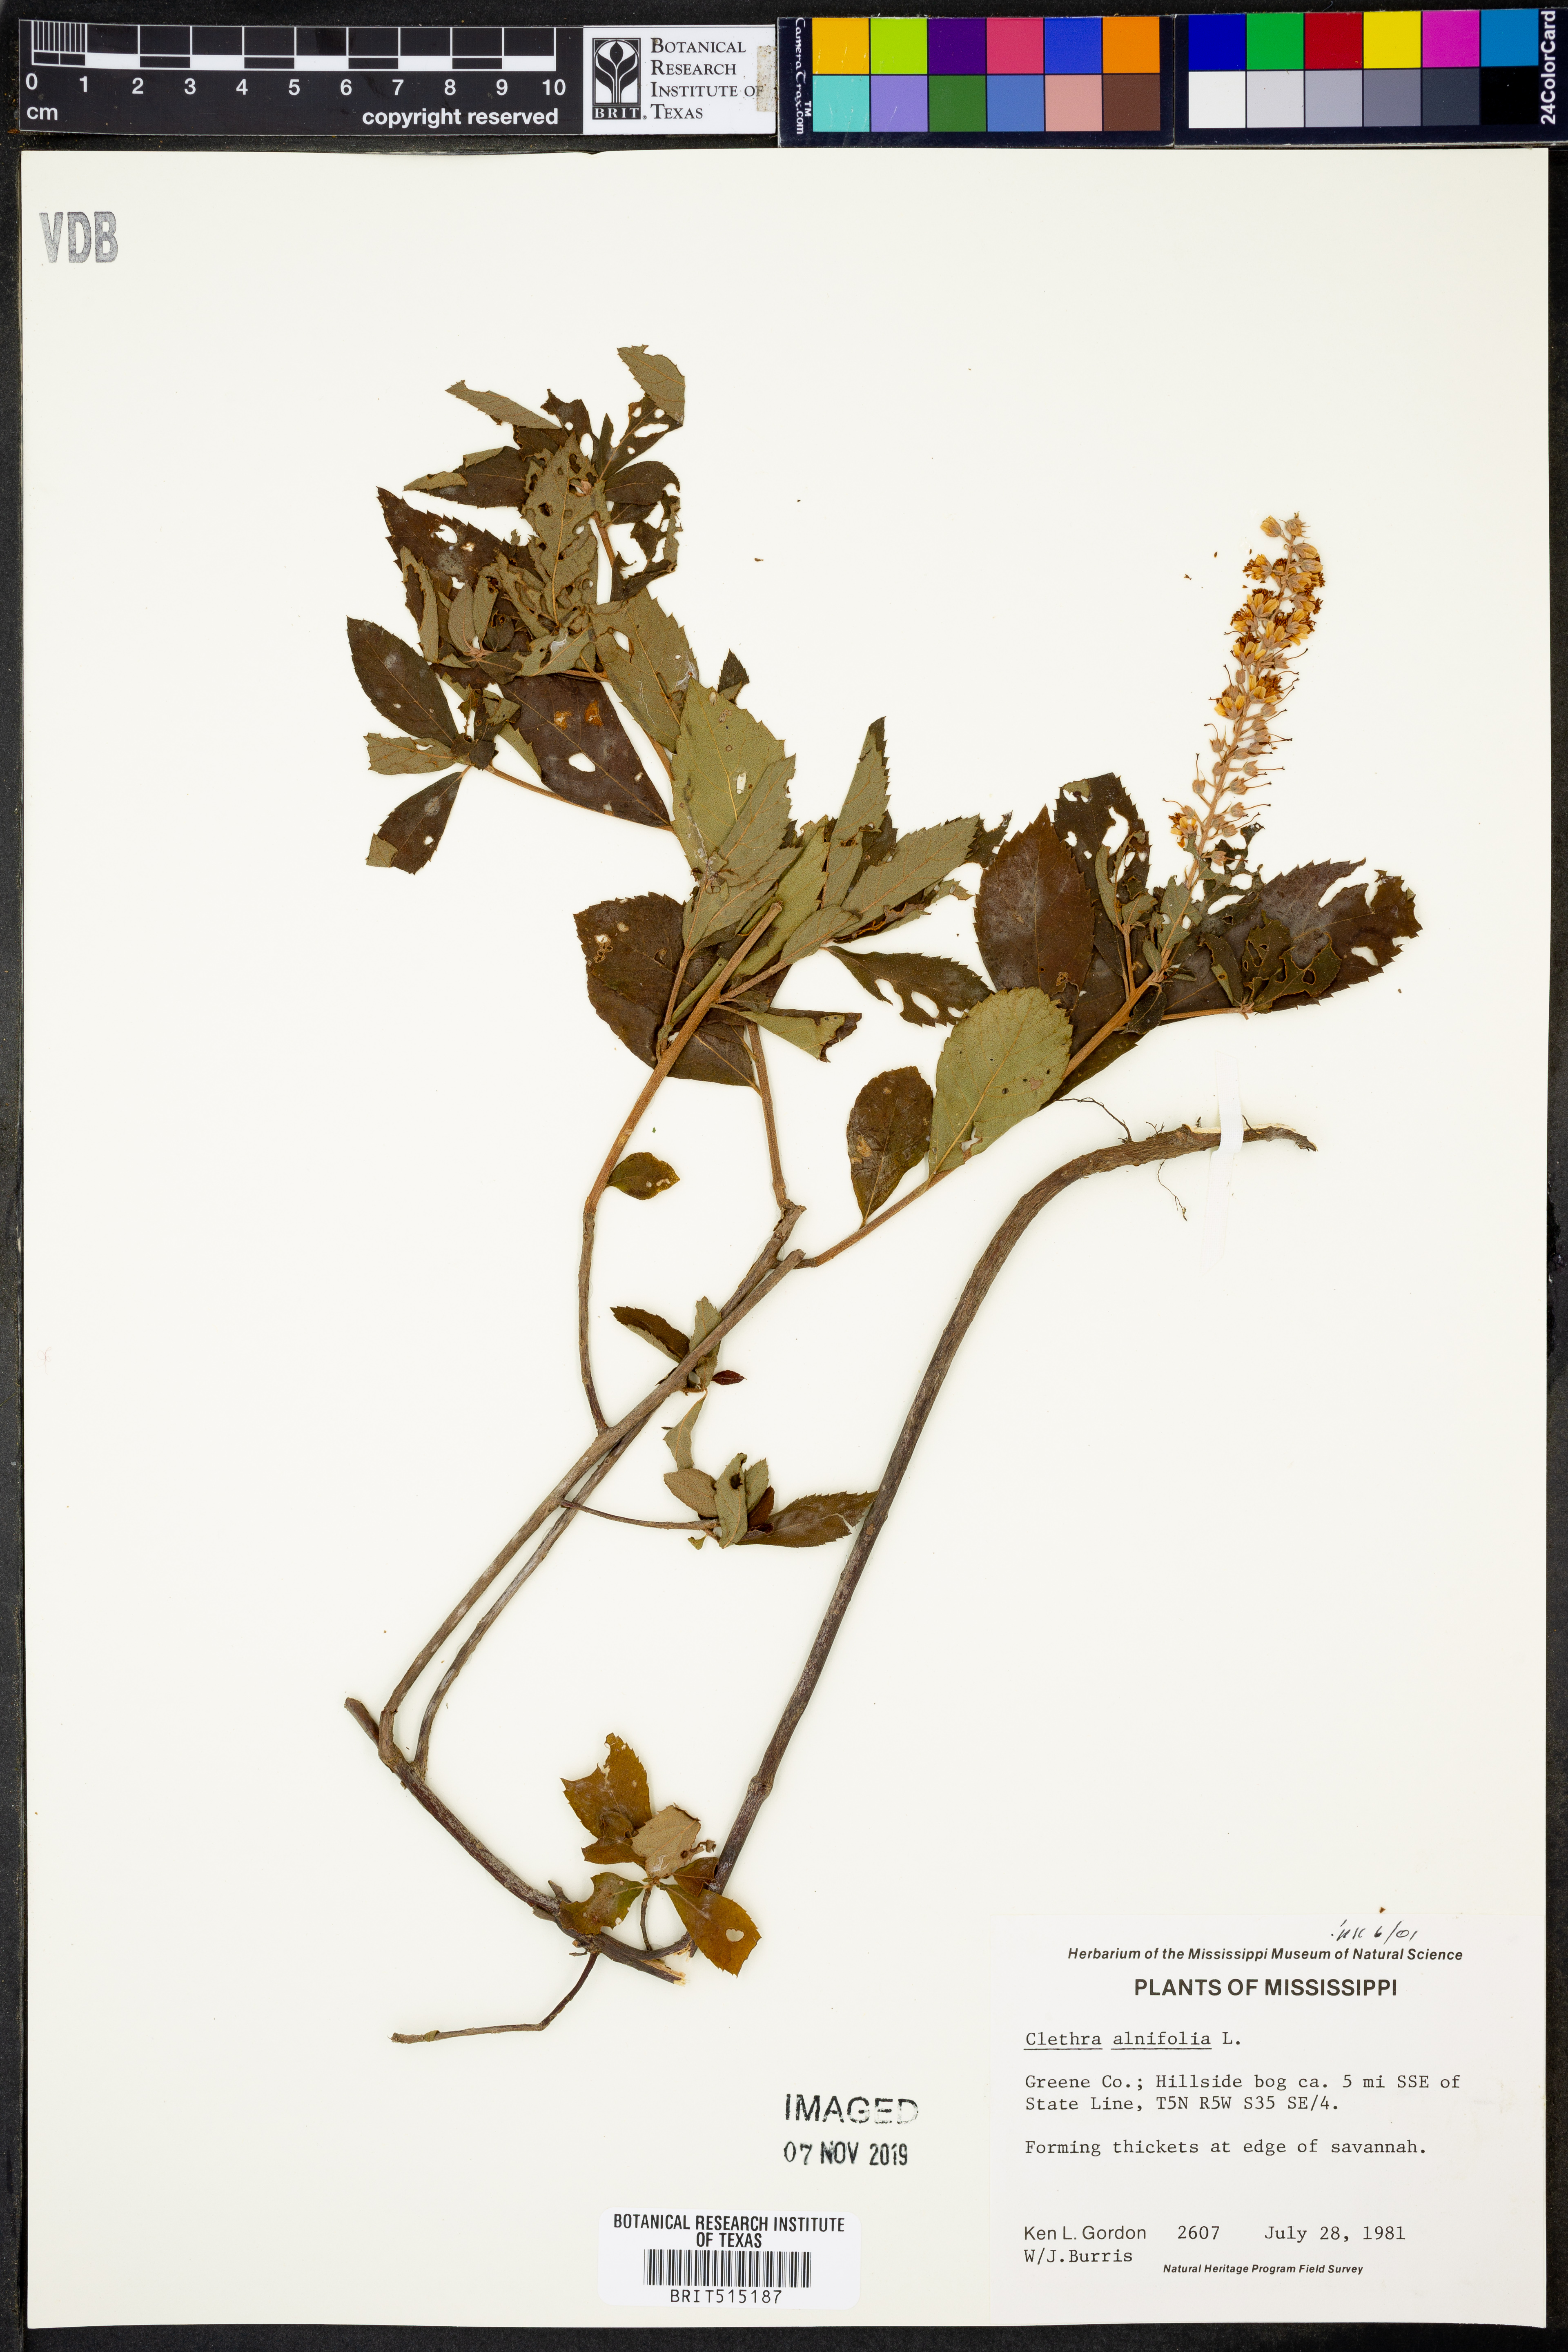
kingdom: Plantae
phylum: Tracheophyta
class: Magnoliopsida
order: Ericales
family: Clethraceae
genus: Clethra
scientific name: Clethra alnifolia
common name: Sweet pepperbush
